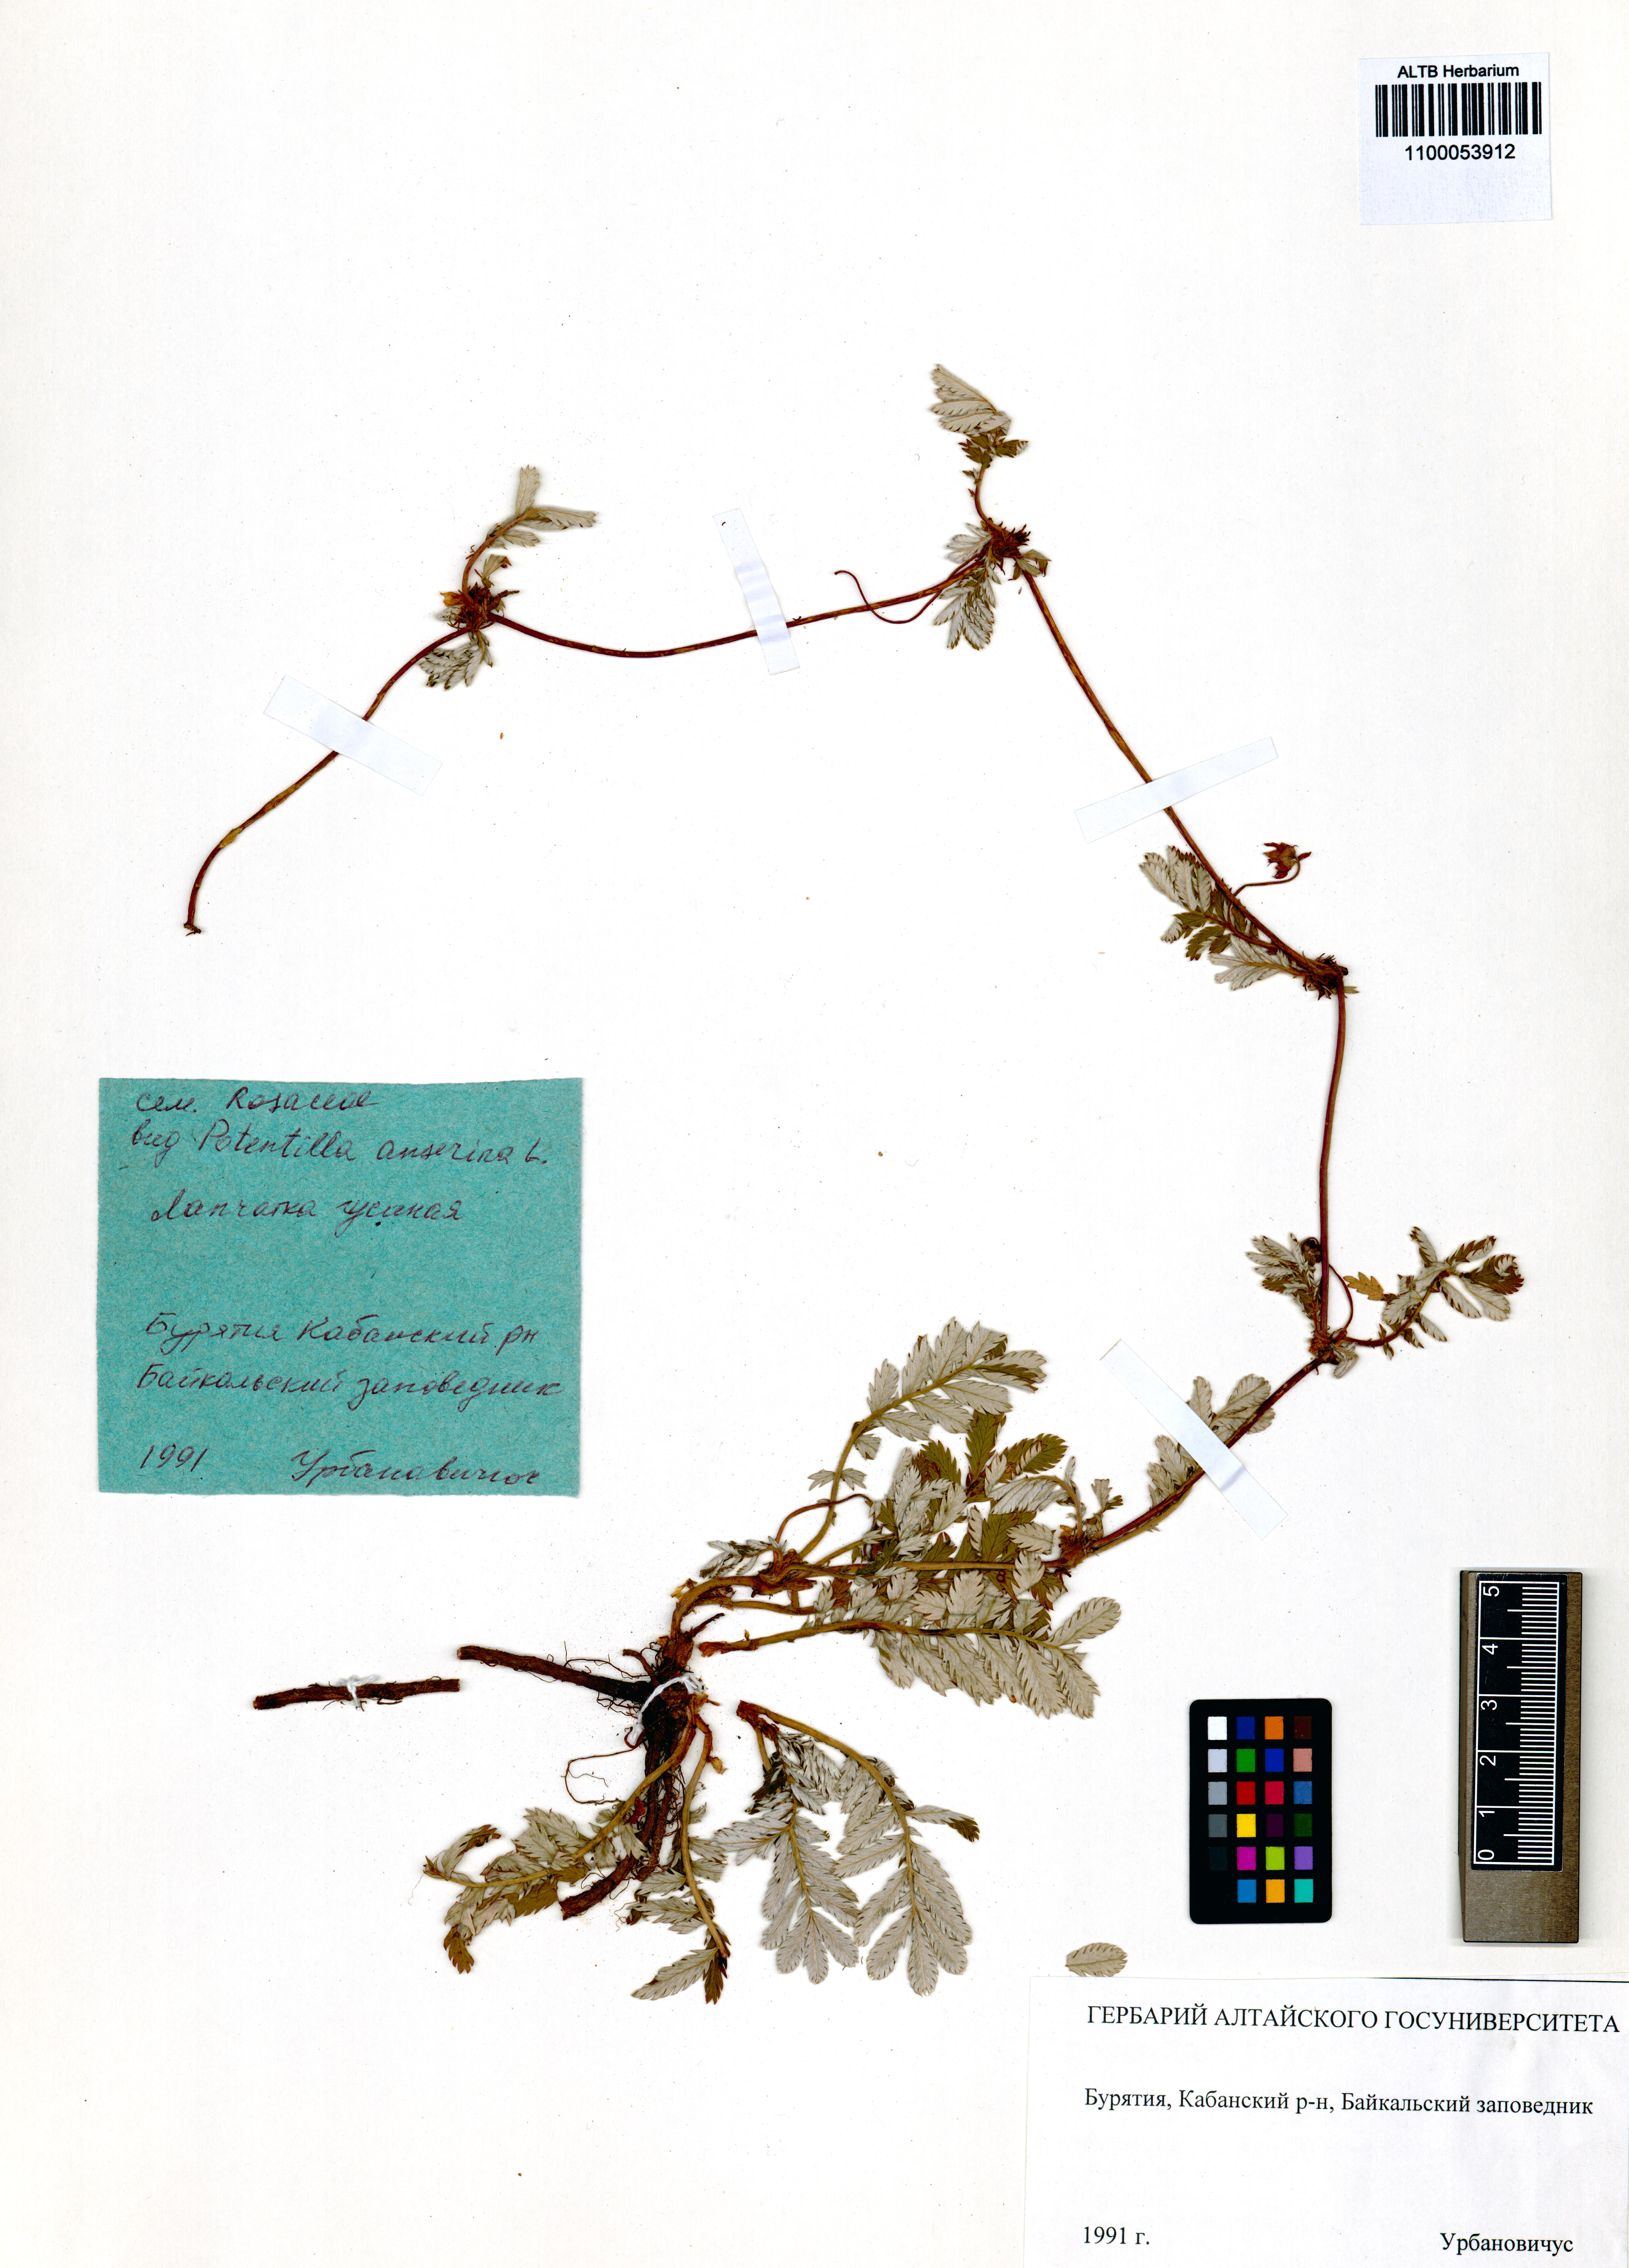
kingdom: Plantae
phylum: Tracheophyta
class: Magnoliopsida
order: Rosales
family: Rosaceae
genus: Argentina
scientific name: Argentina anserina
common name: Common silverweed
